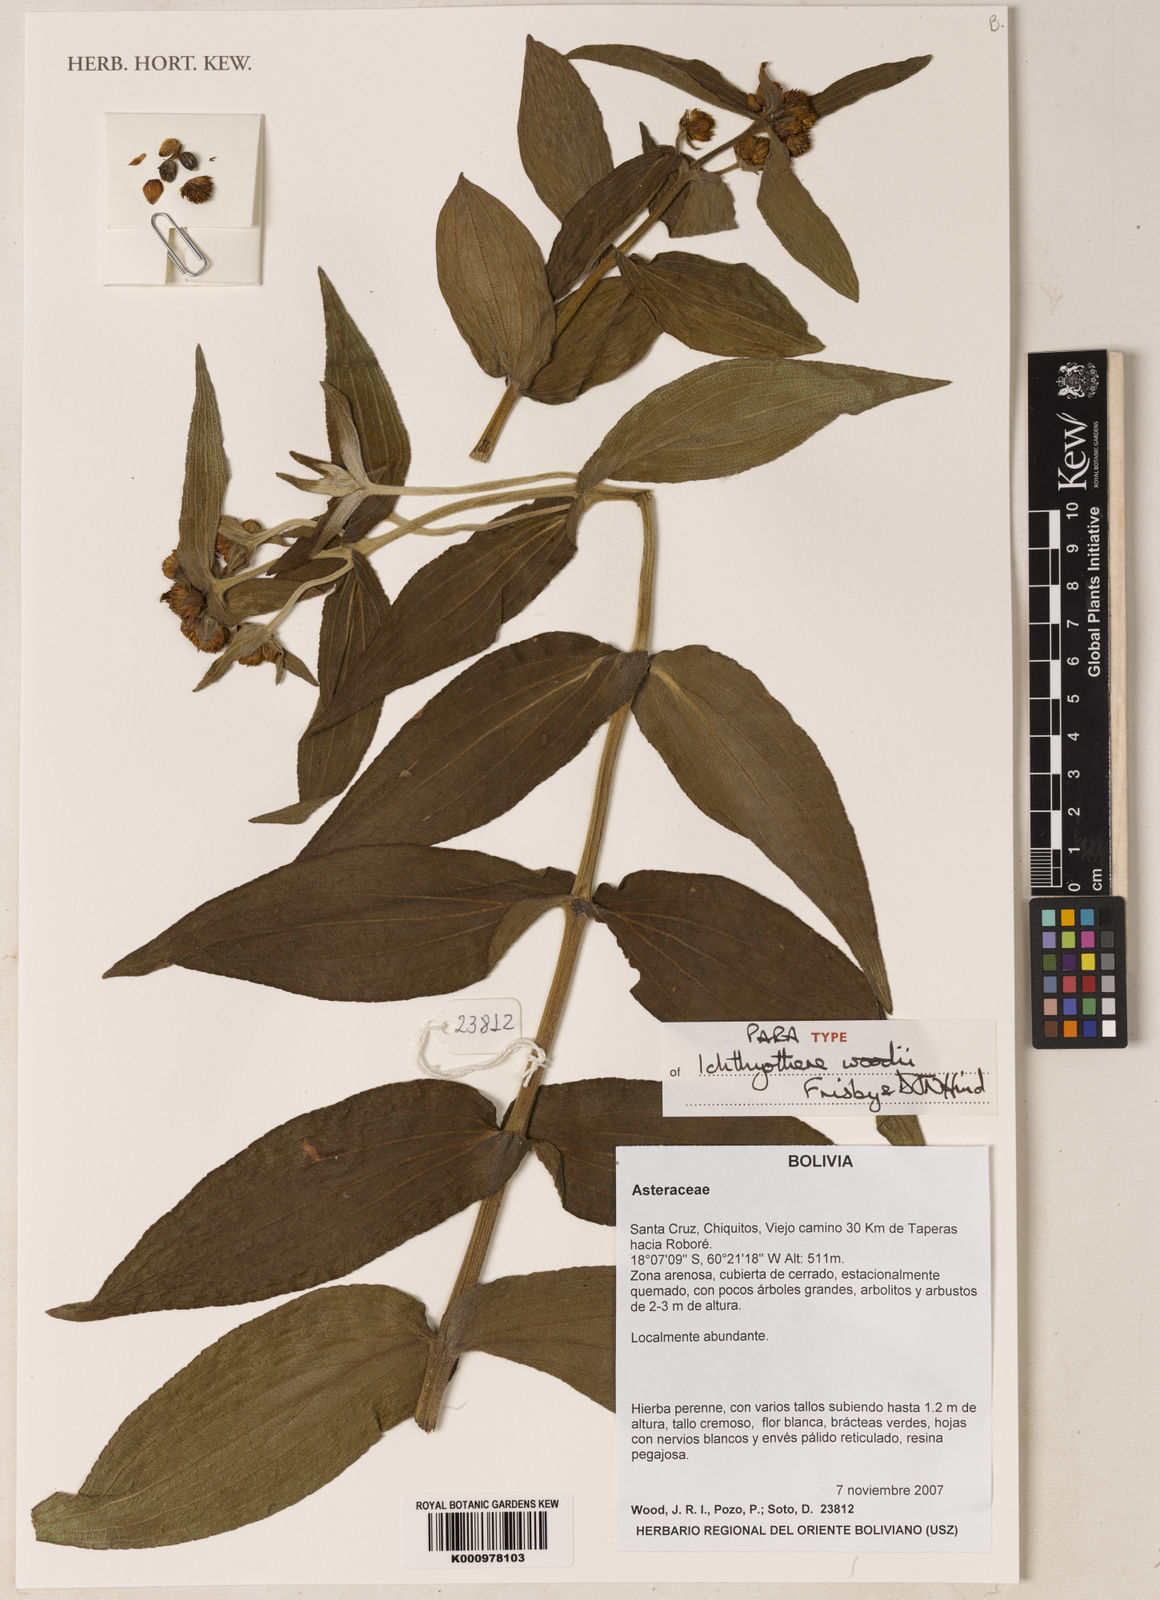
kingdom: Plantae
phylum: Tracheophyta
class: Magnoliopsida
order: Asterales
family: Asteraceae
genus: Ichthyothere
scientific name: Ichthyothere woodii
